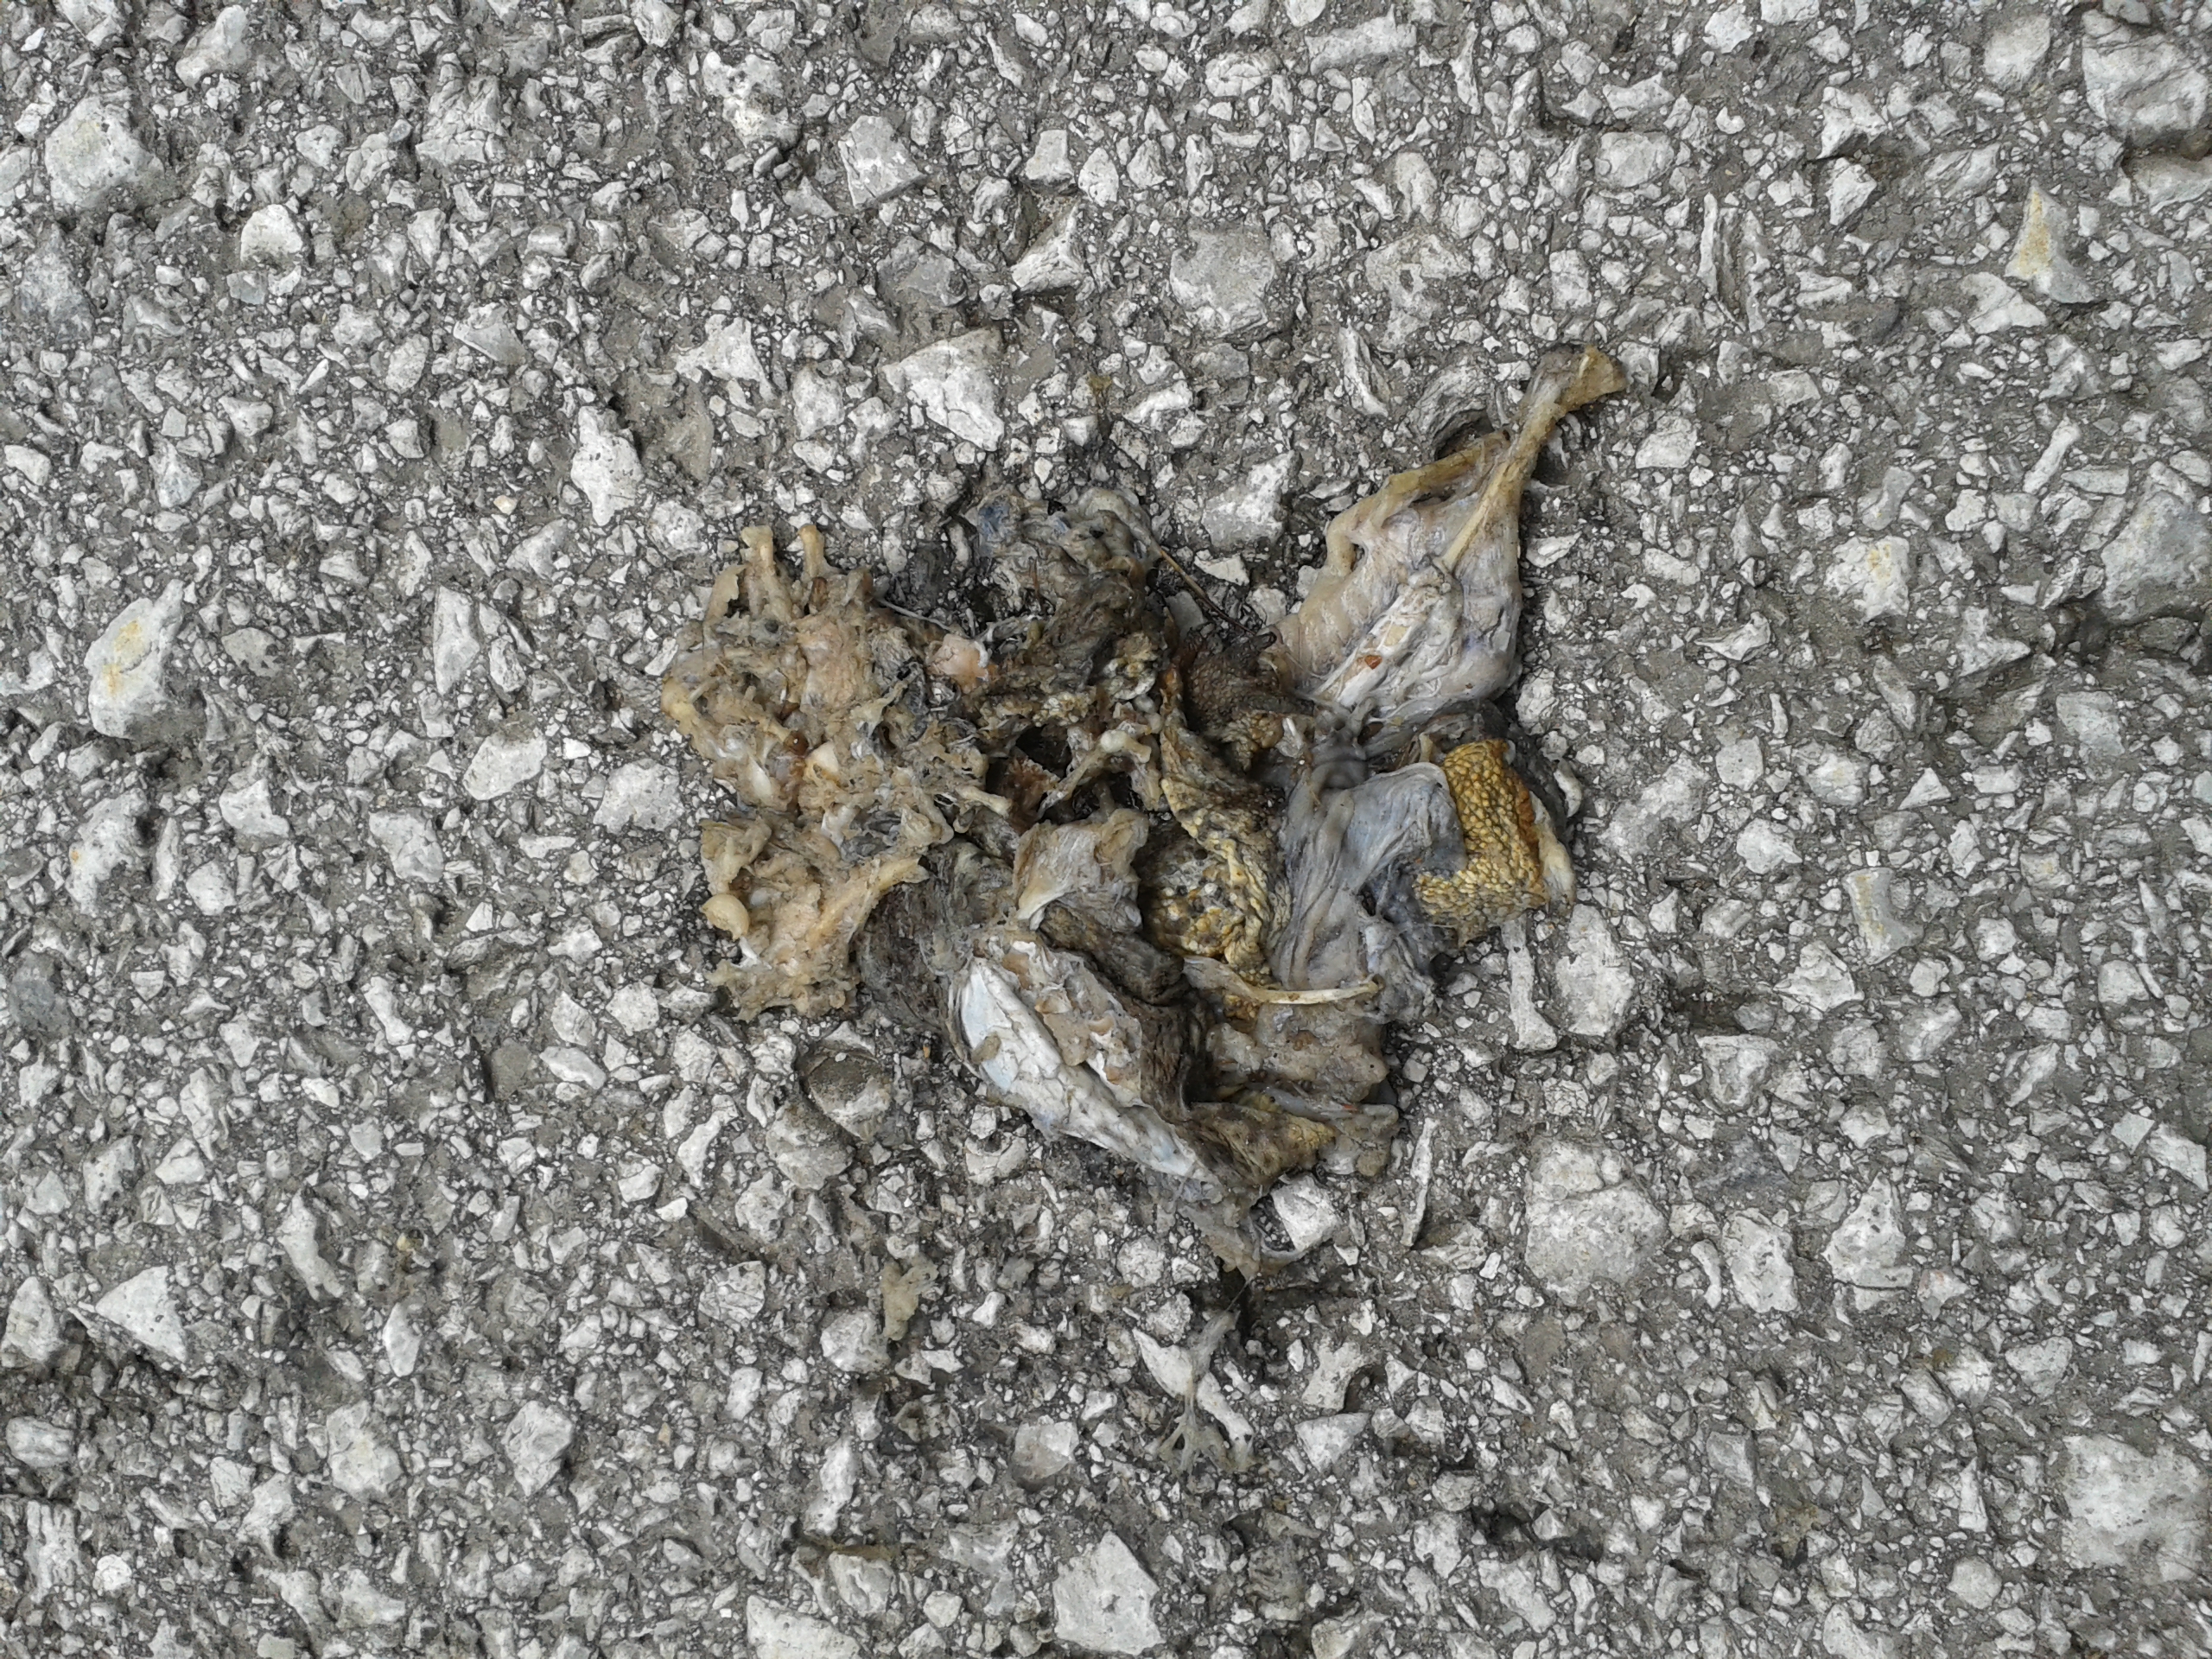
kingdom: Animalia
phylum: Chordata
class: Amphibia
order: Anura
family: Bufonidae
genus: Bufo
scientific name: Bufo bufo
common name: Common toad
